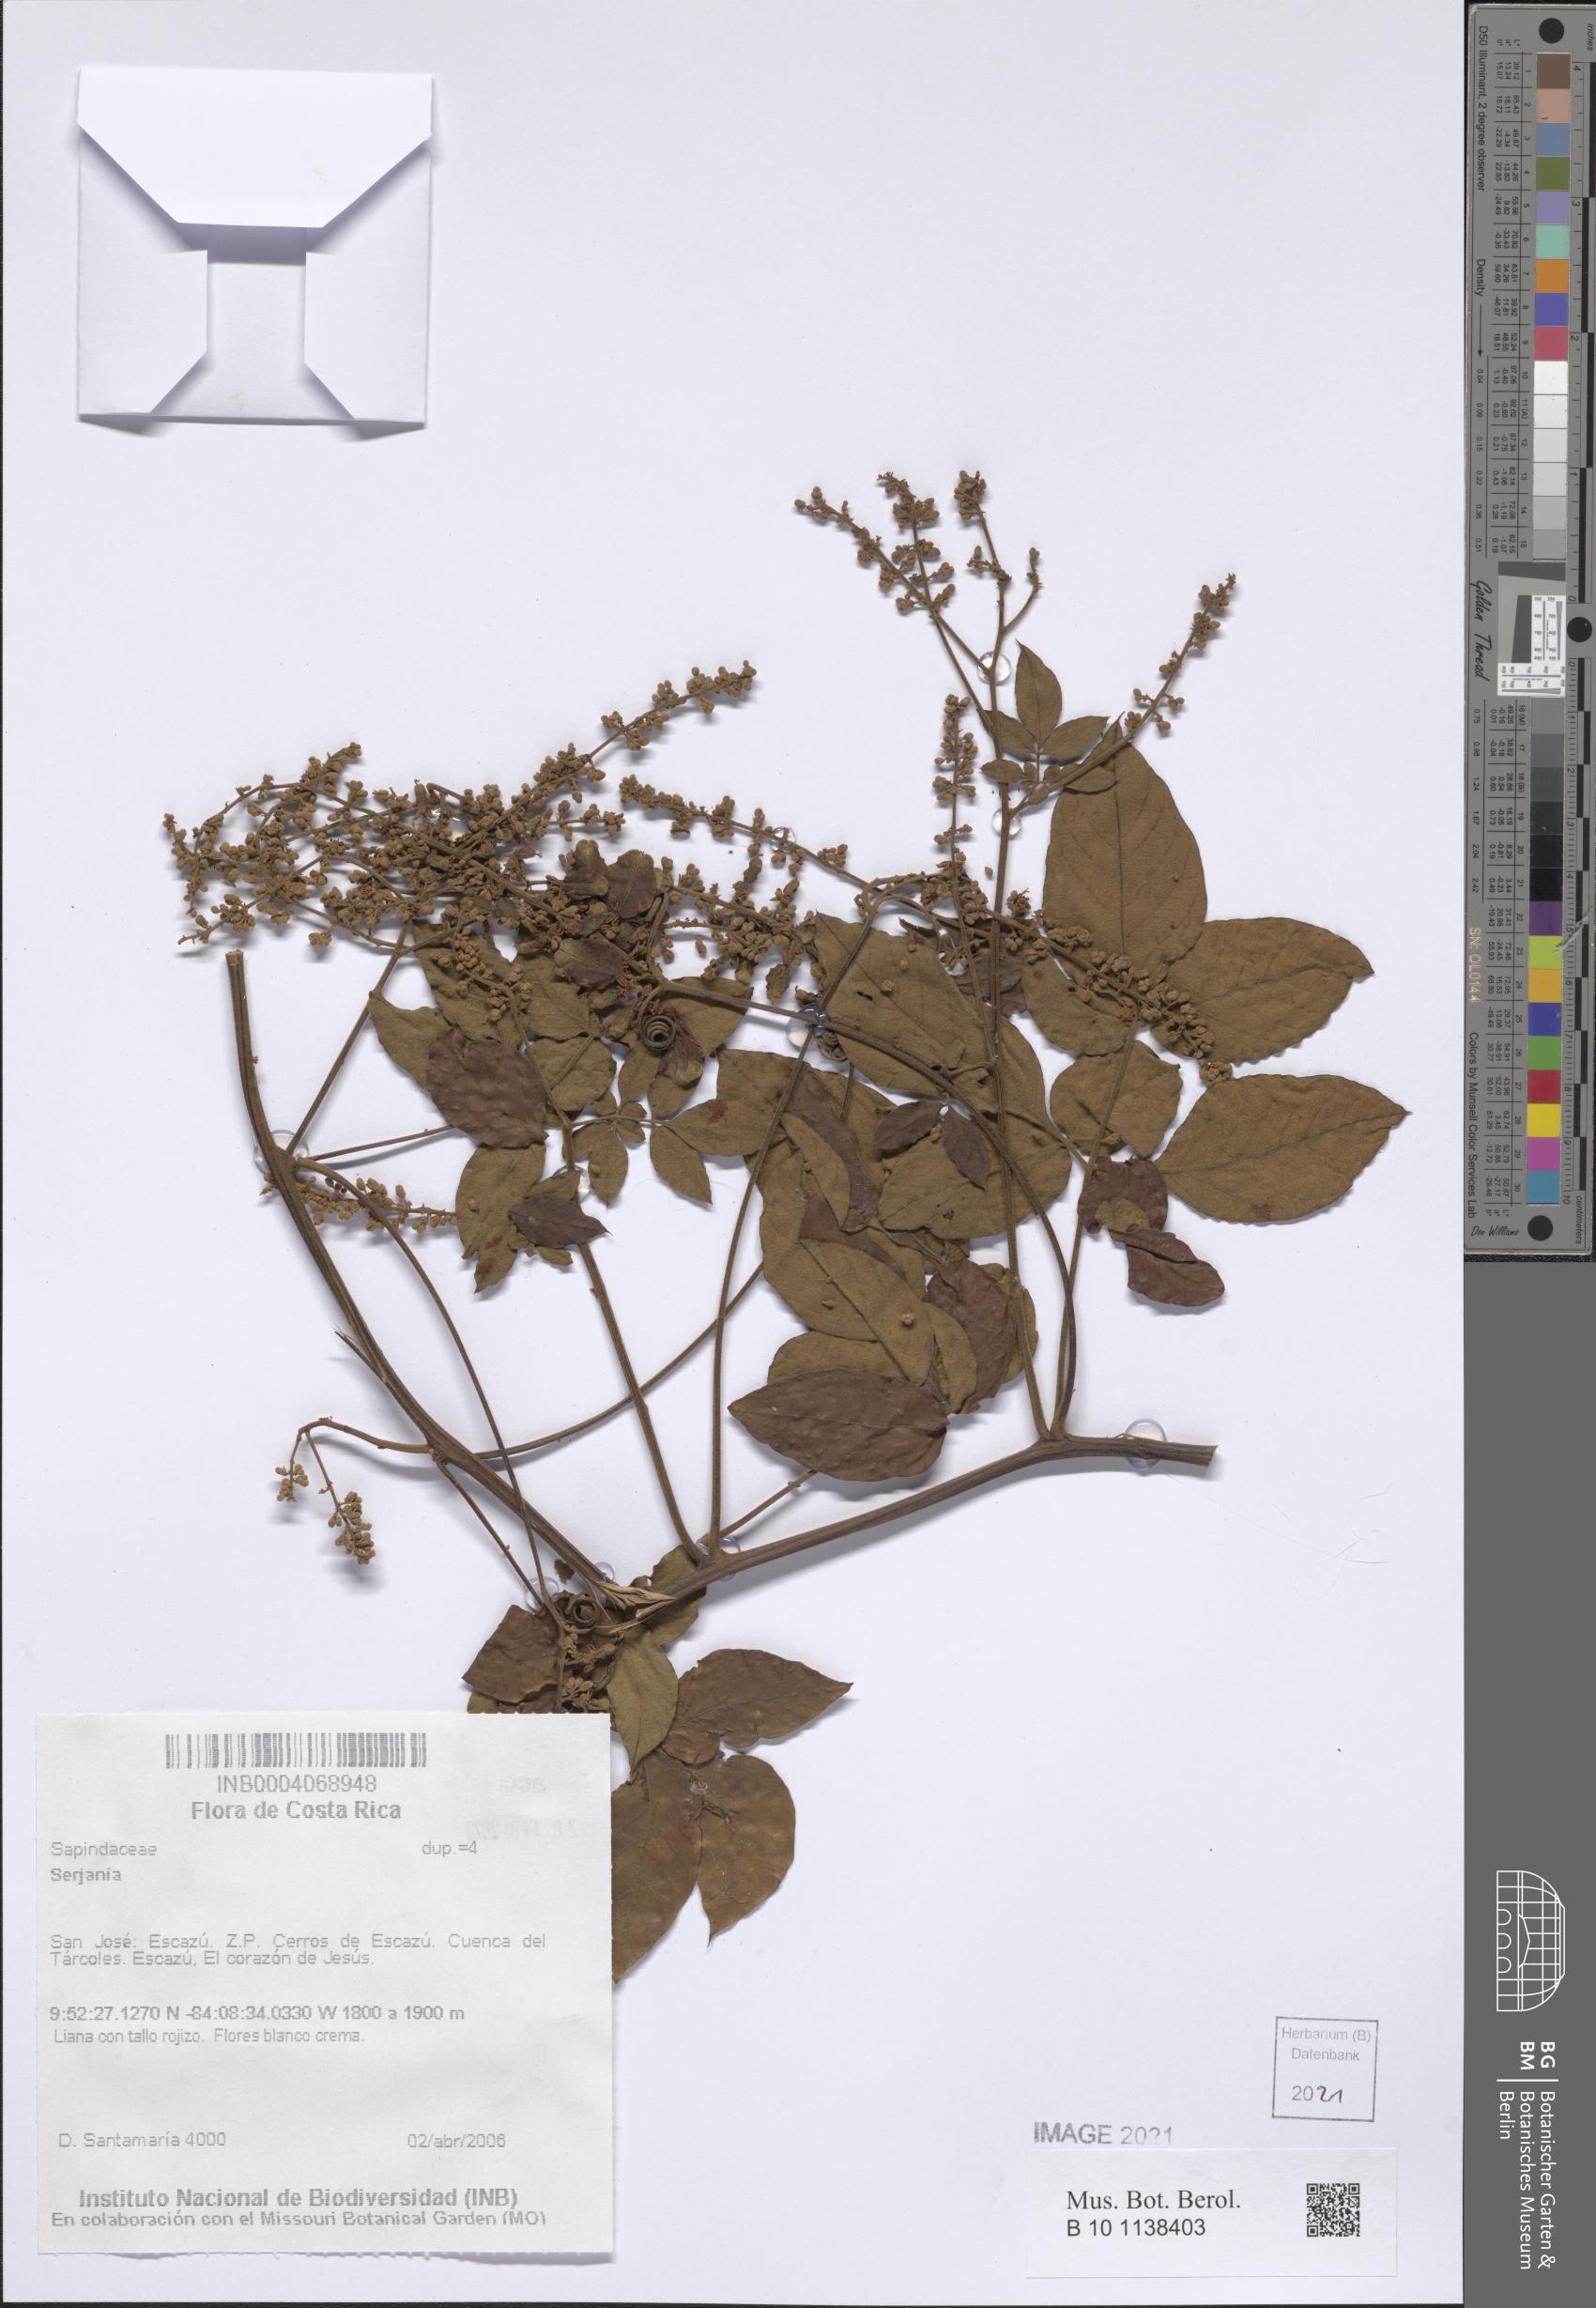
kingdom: Plantae
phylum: Tracheophyta
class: Magnoliopsida
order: Sapindales
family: Sapindaceae
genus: Serjania
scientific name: Serjania
